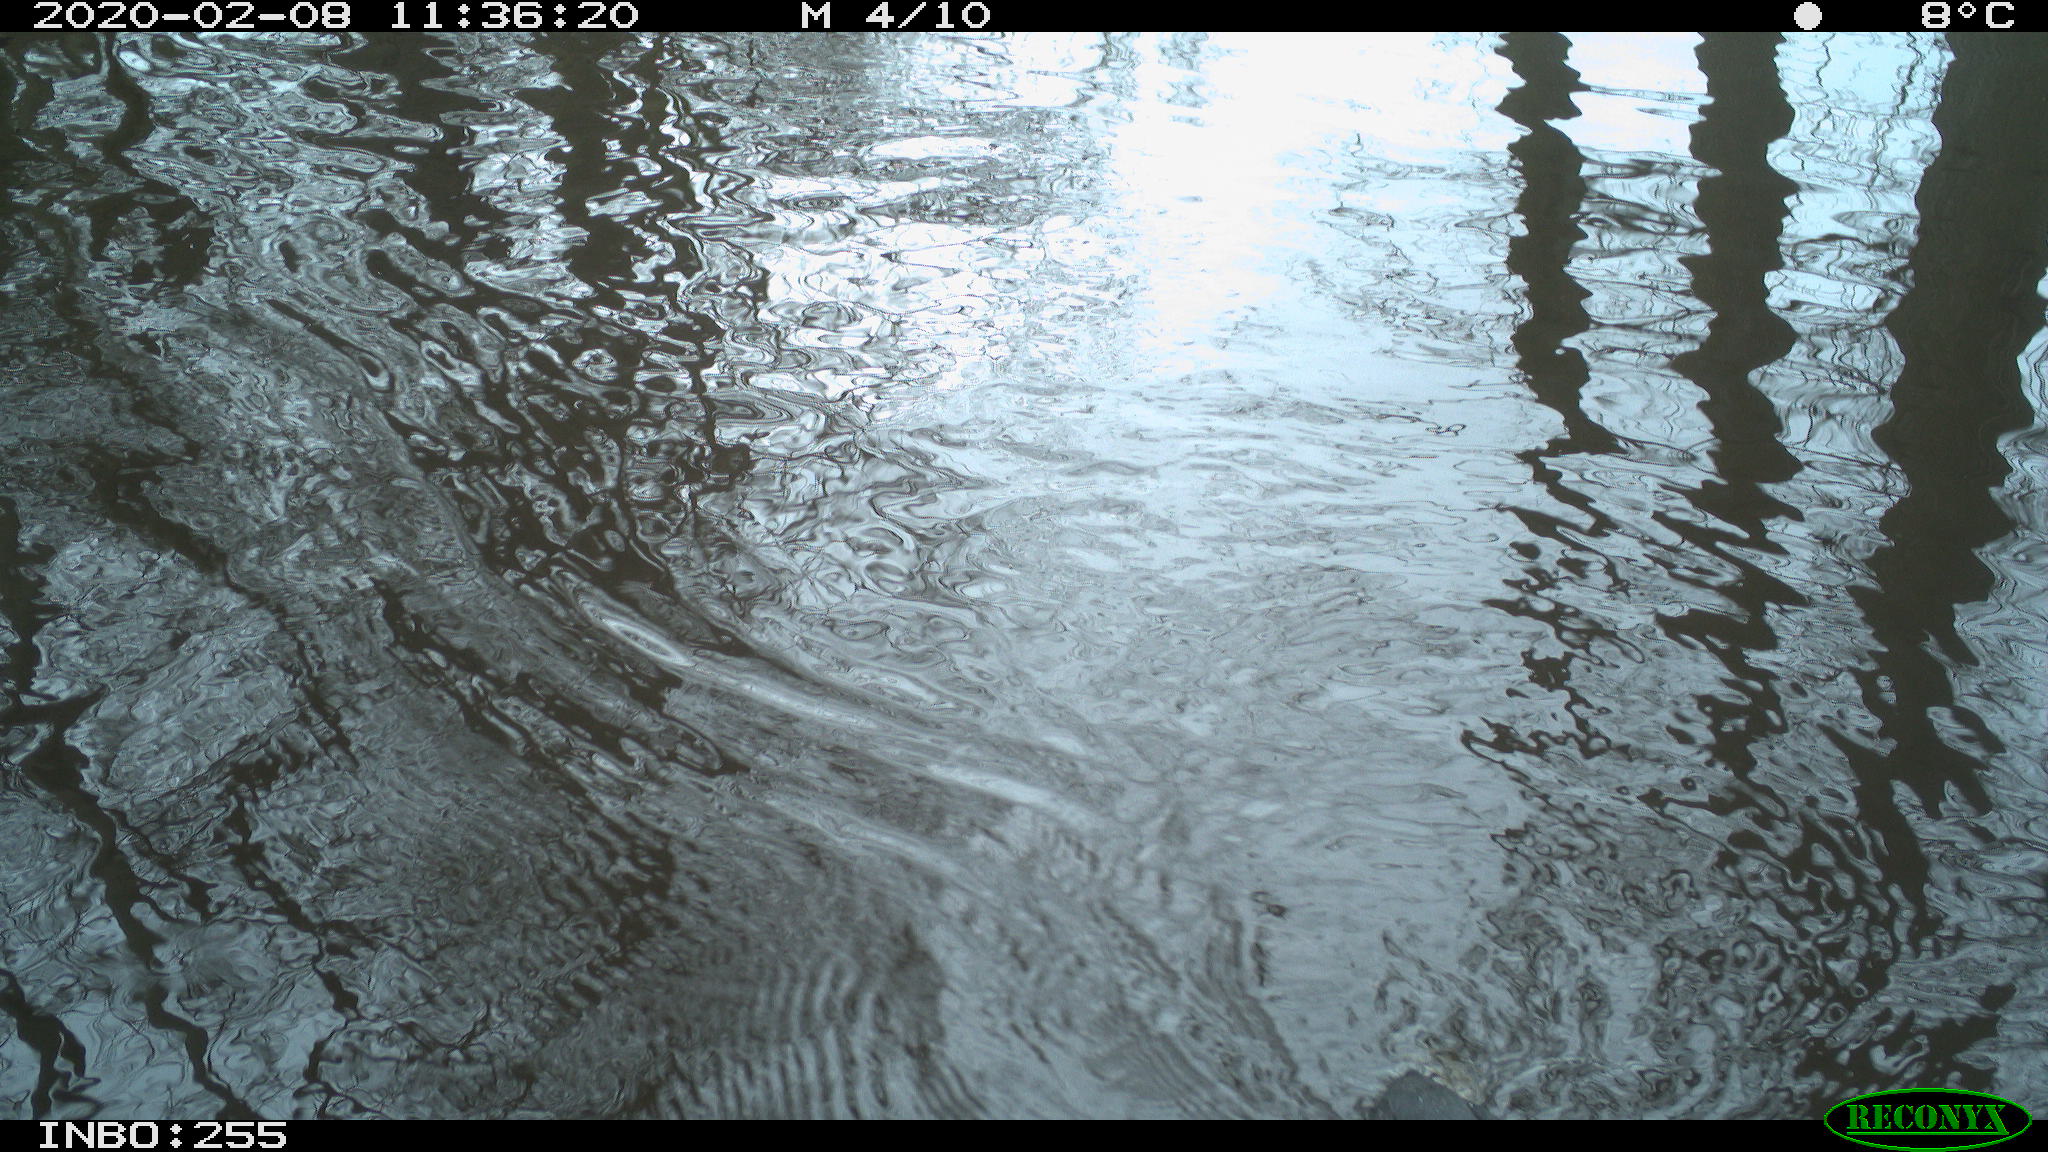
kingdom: Animalia
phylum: Chordata
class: Aves
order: Gruiformes
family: Rallidae
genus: Fulica
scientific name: Fulica atra
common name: Eurasian coot
